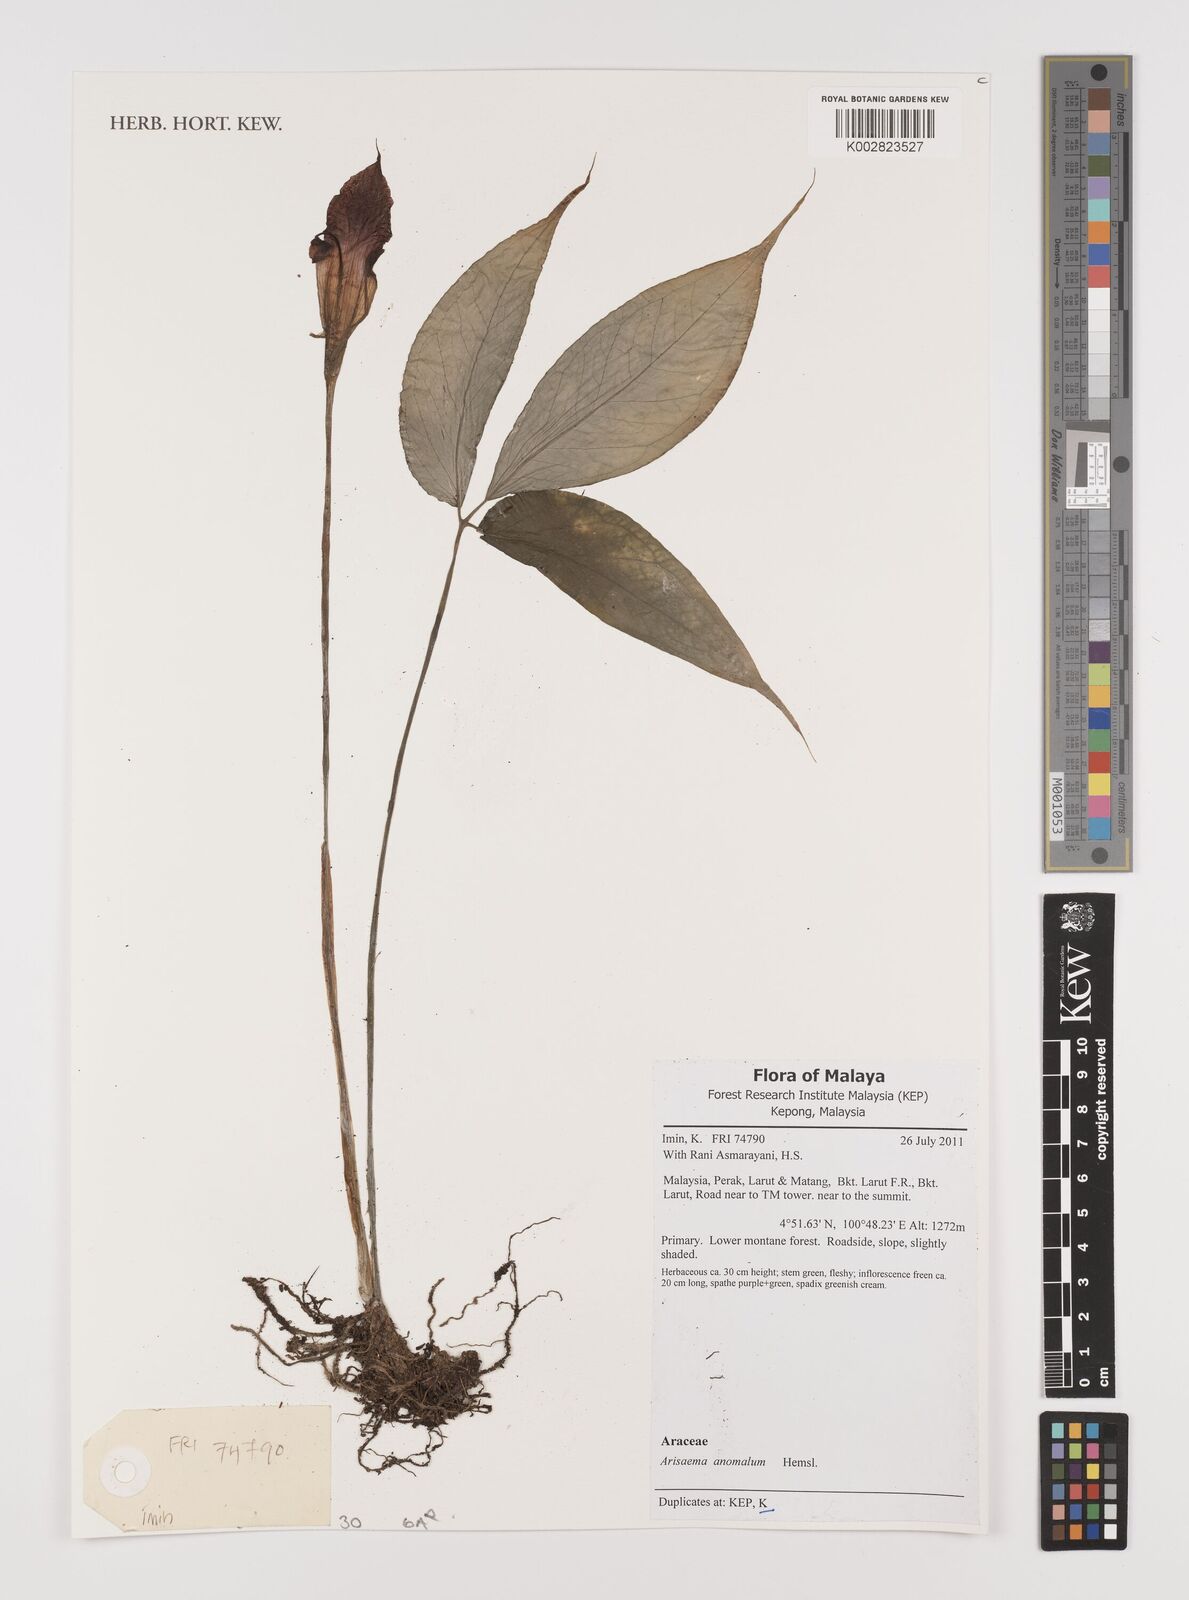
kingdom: Plantae
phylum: Tracheophyta
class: Liliopsida
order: Alismatales
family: Araceae
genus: Arisaema
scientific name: Arisaema anomalum
